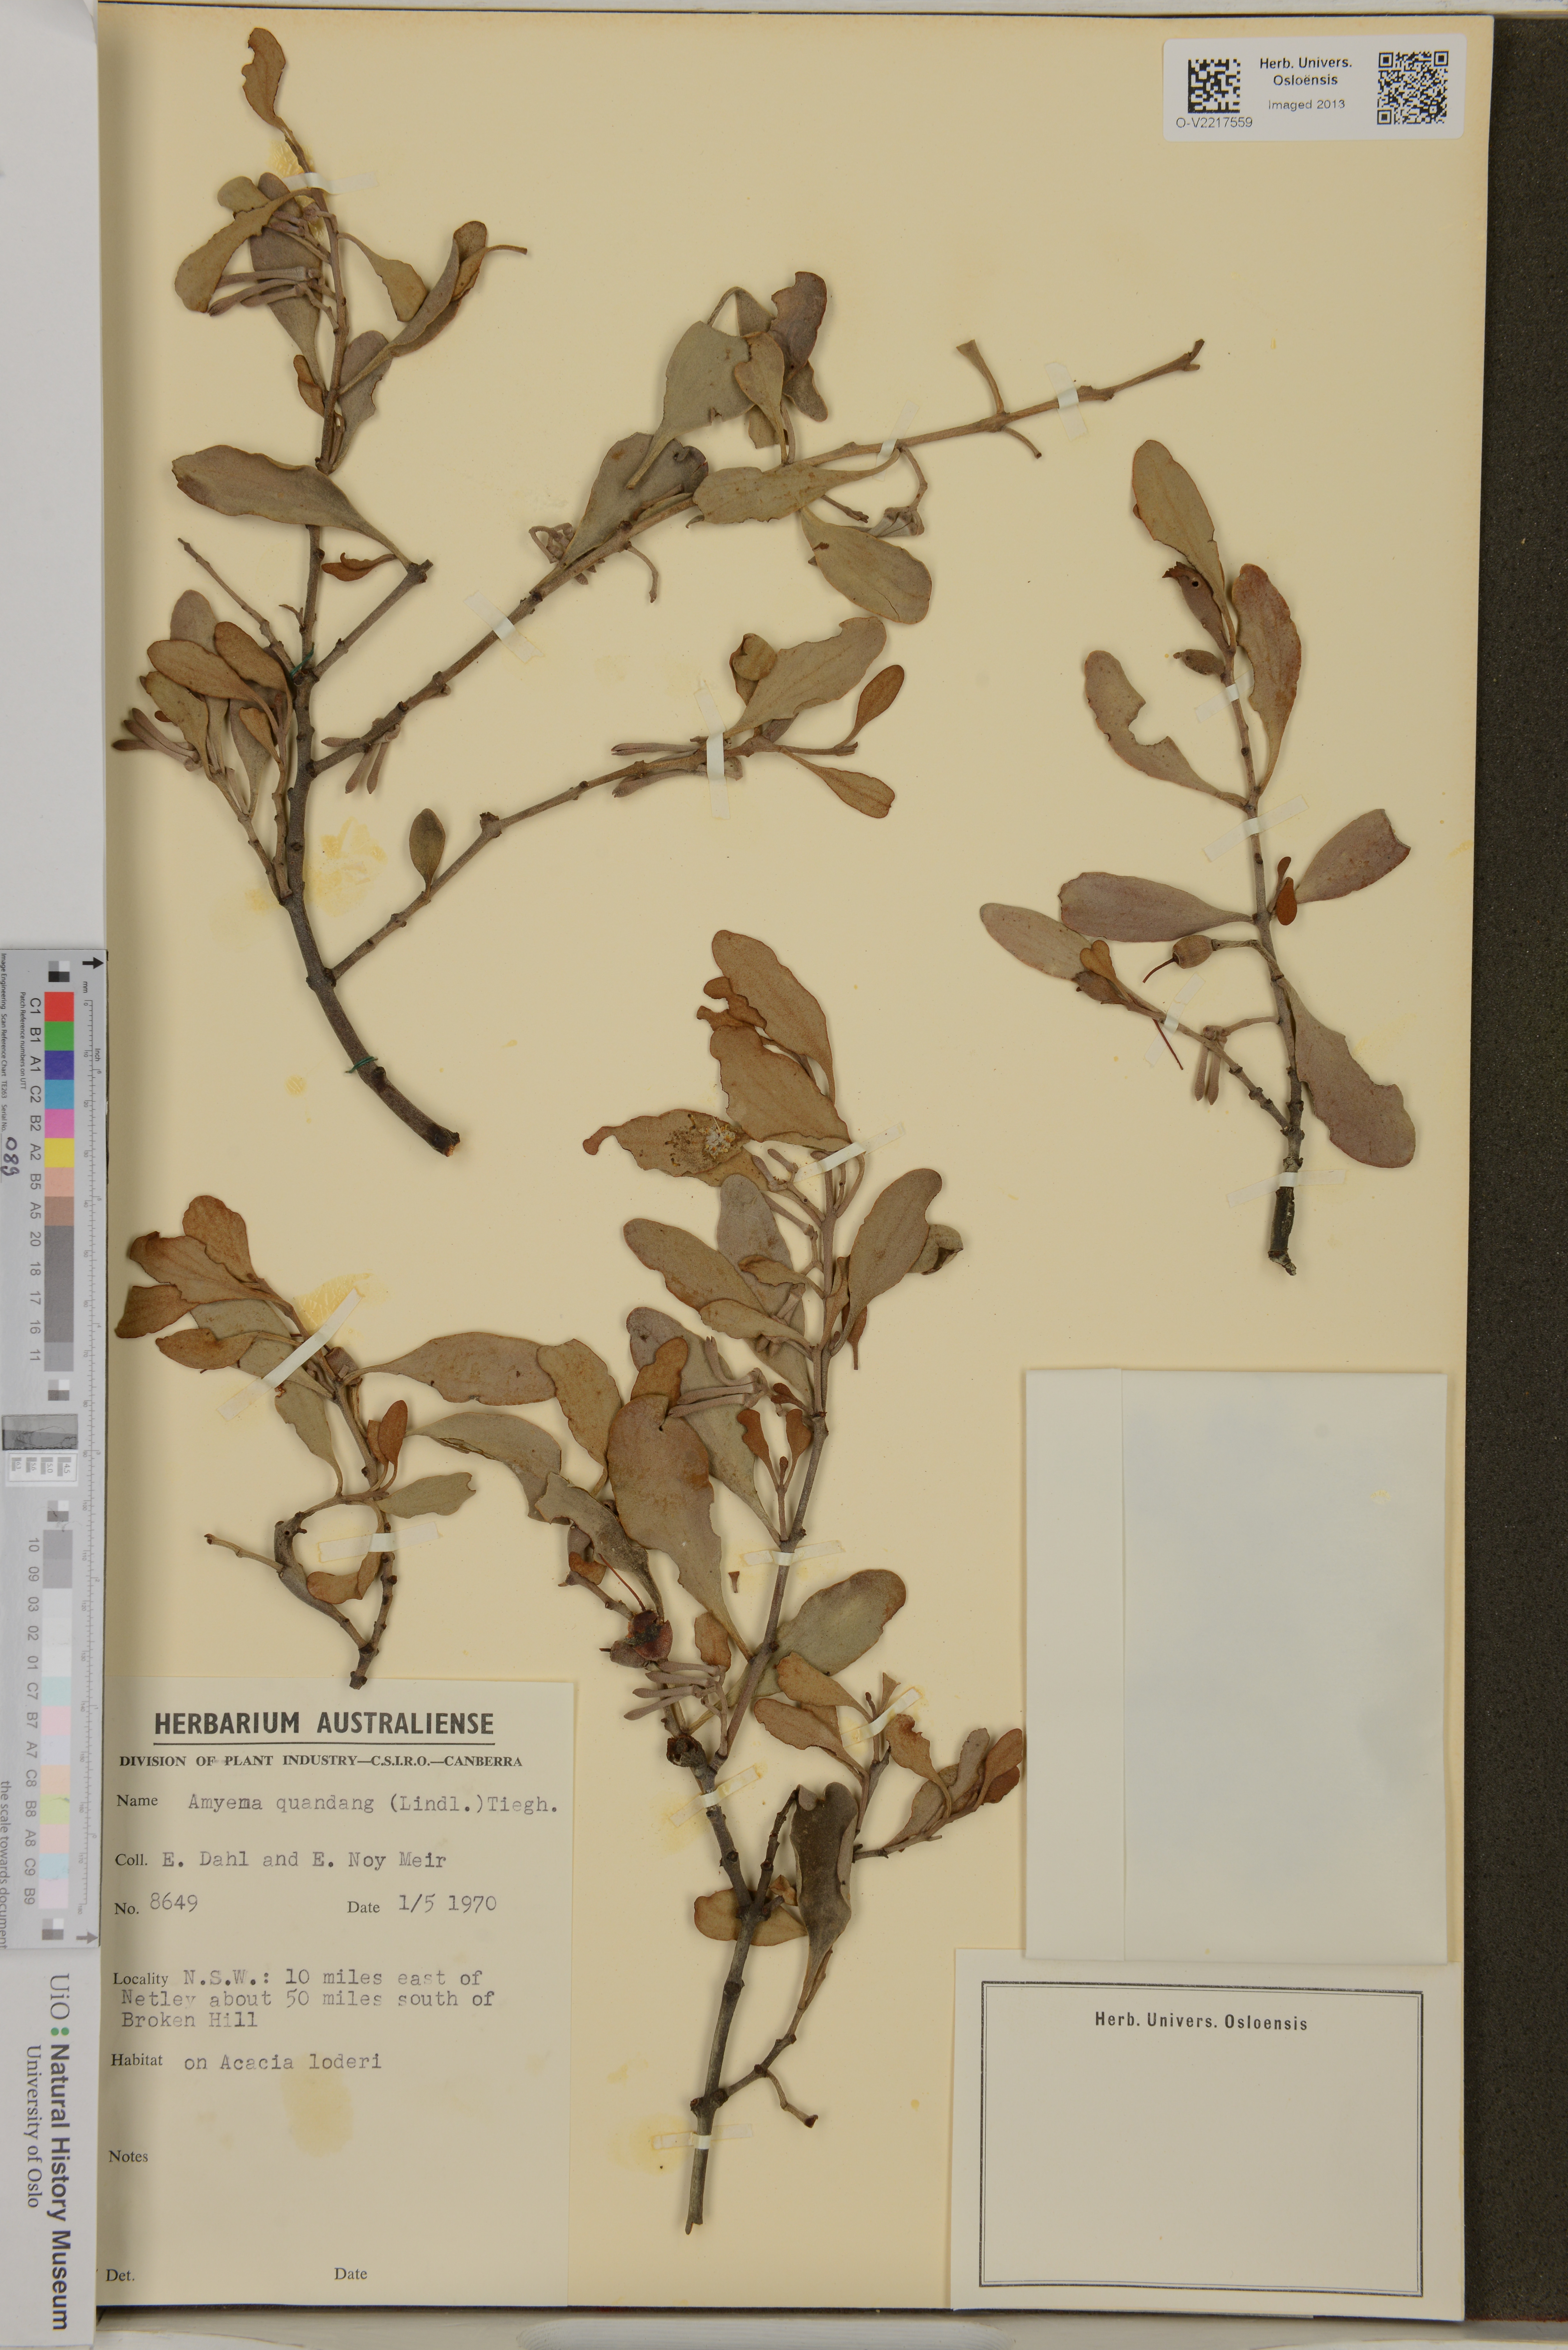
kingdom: Plantae
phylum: Tracheophyta
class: Magnoliopsida
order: Santalales
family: Loranthaceae
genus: Amyema
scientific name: Amyema quandang
